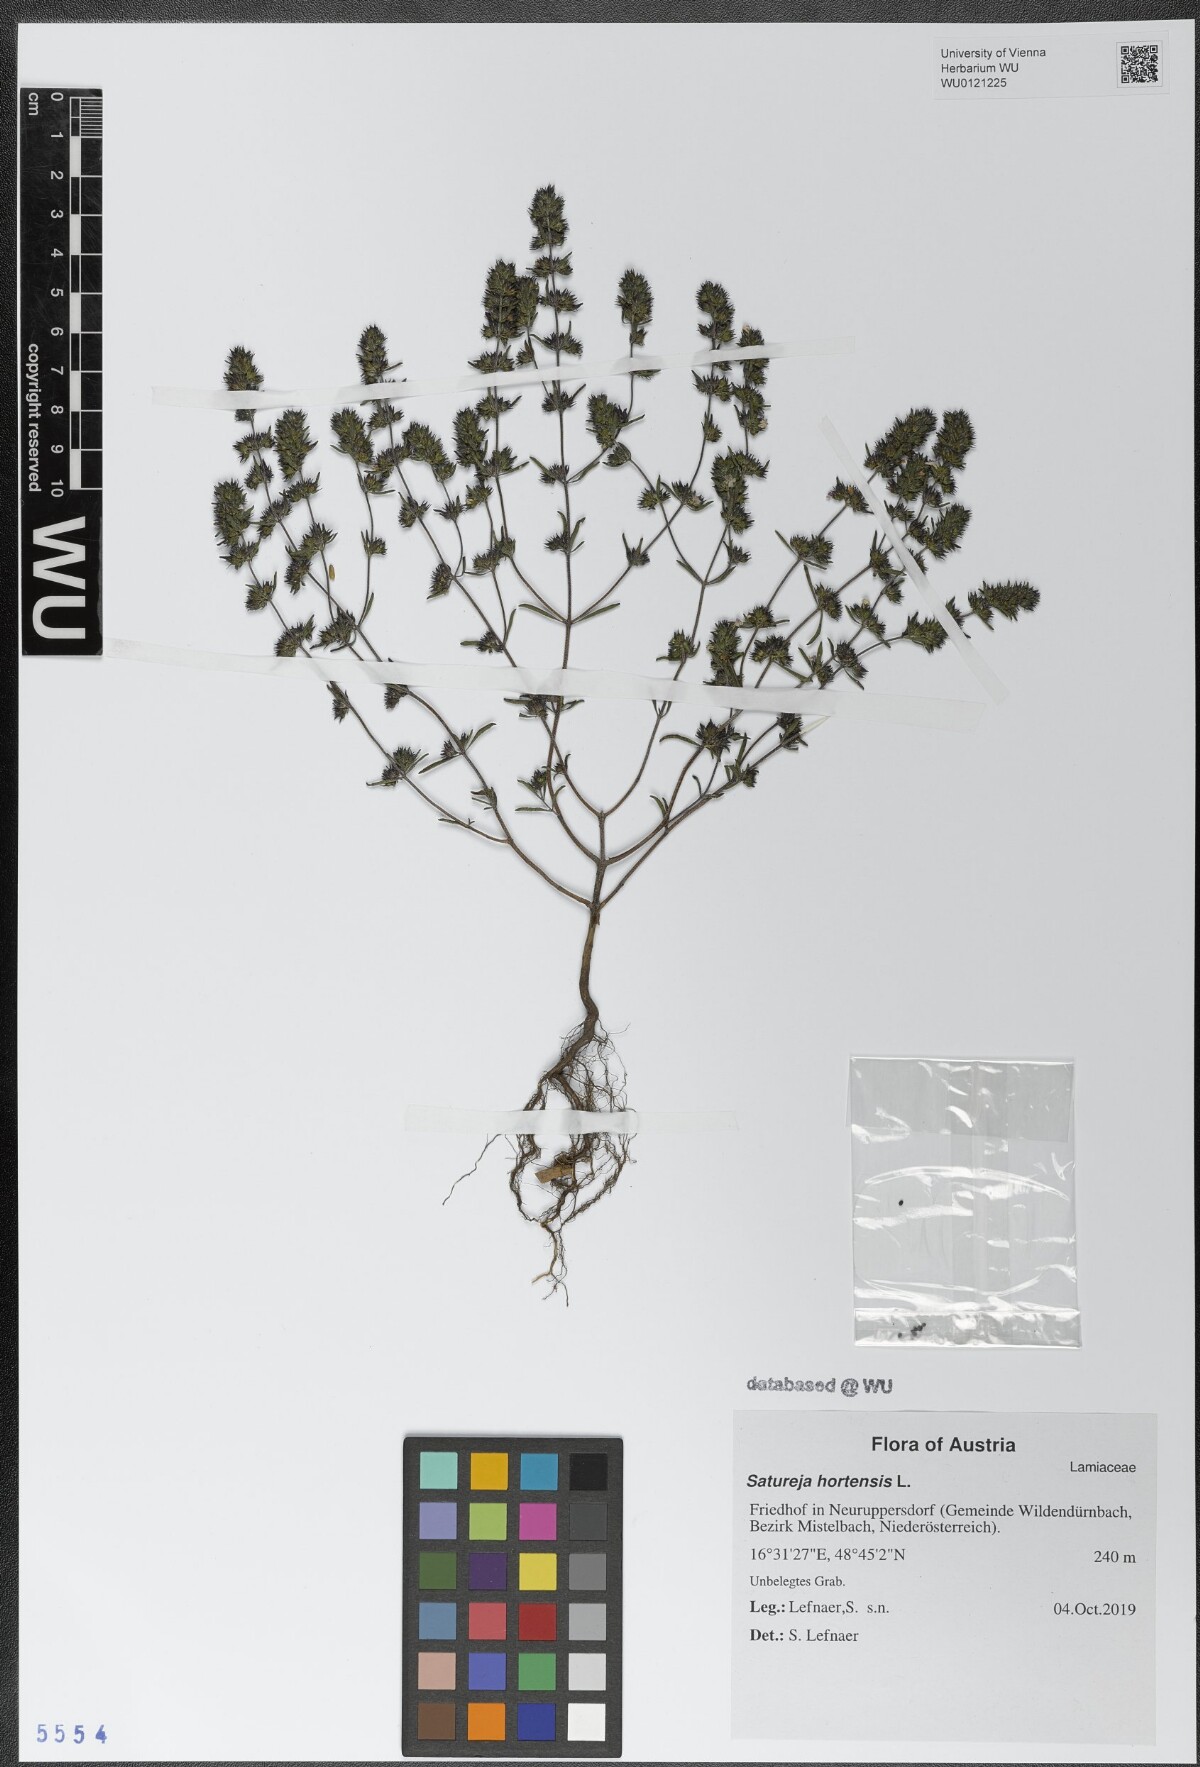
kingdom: Plantae
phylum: Tracheophyta
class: Magnoliopsida
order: Lamiales
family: Lamiaceae
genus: Satureja
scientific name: Satureja hortensis
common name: Summer savory
